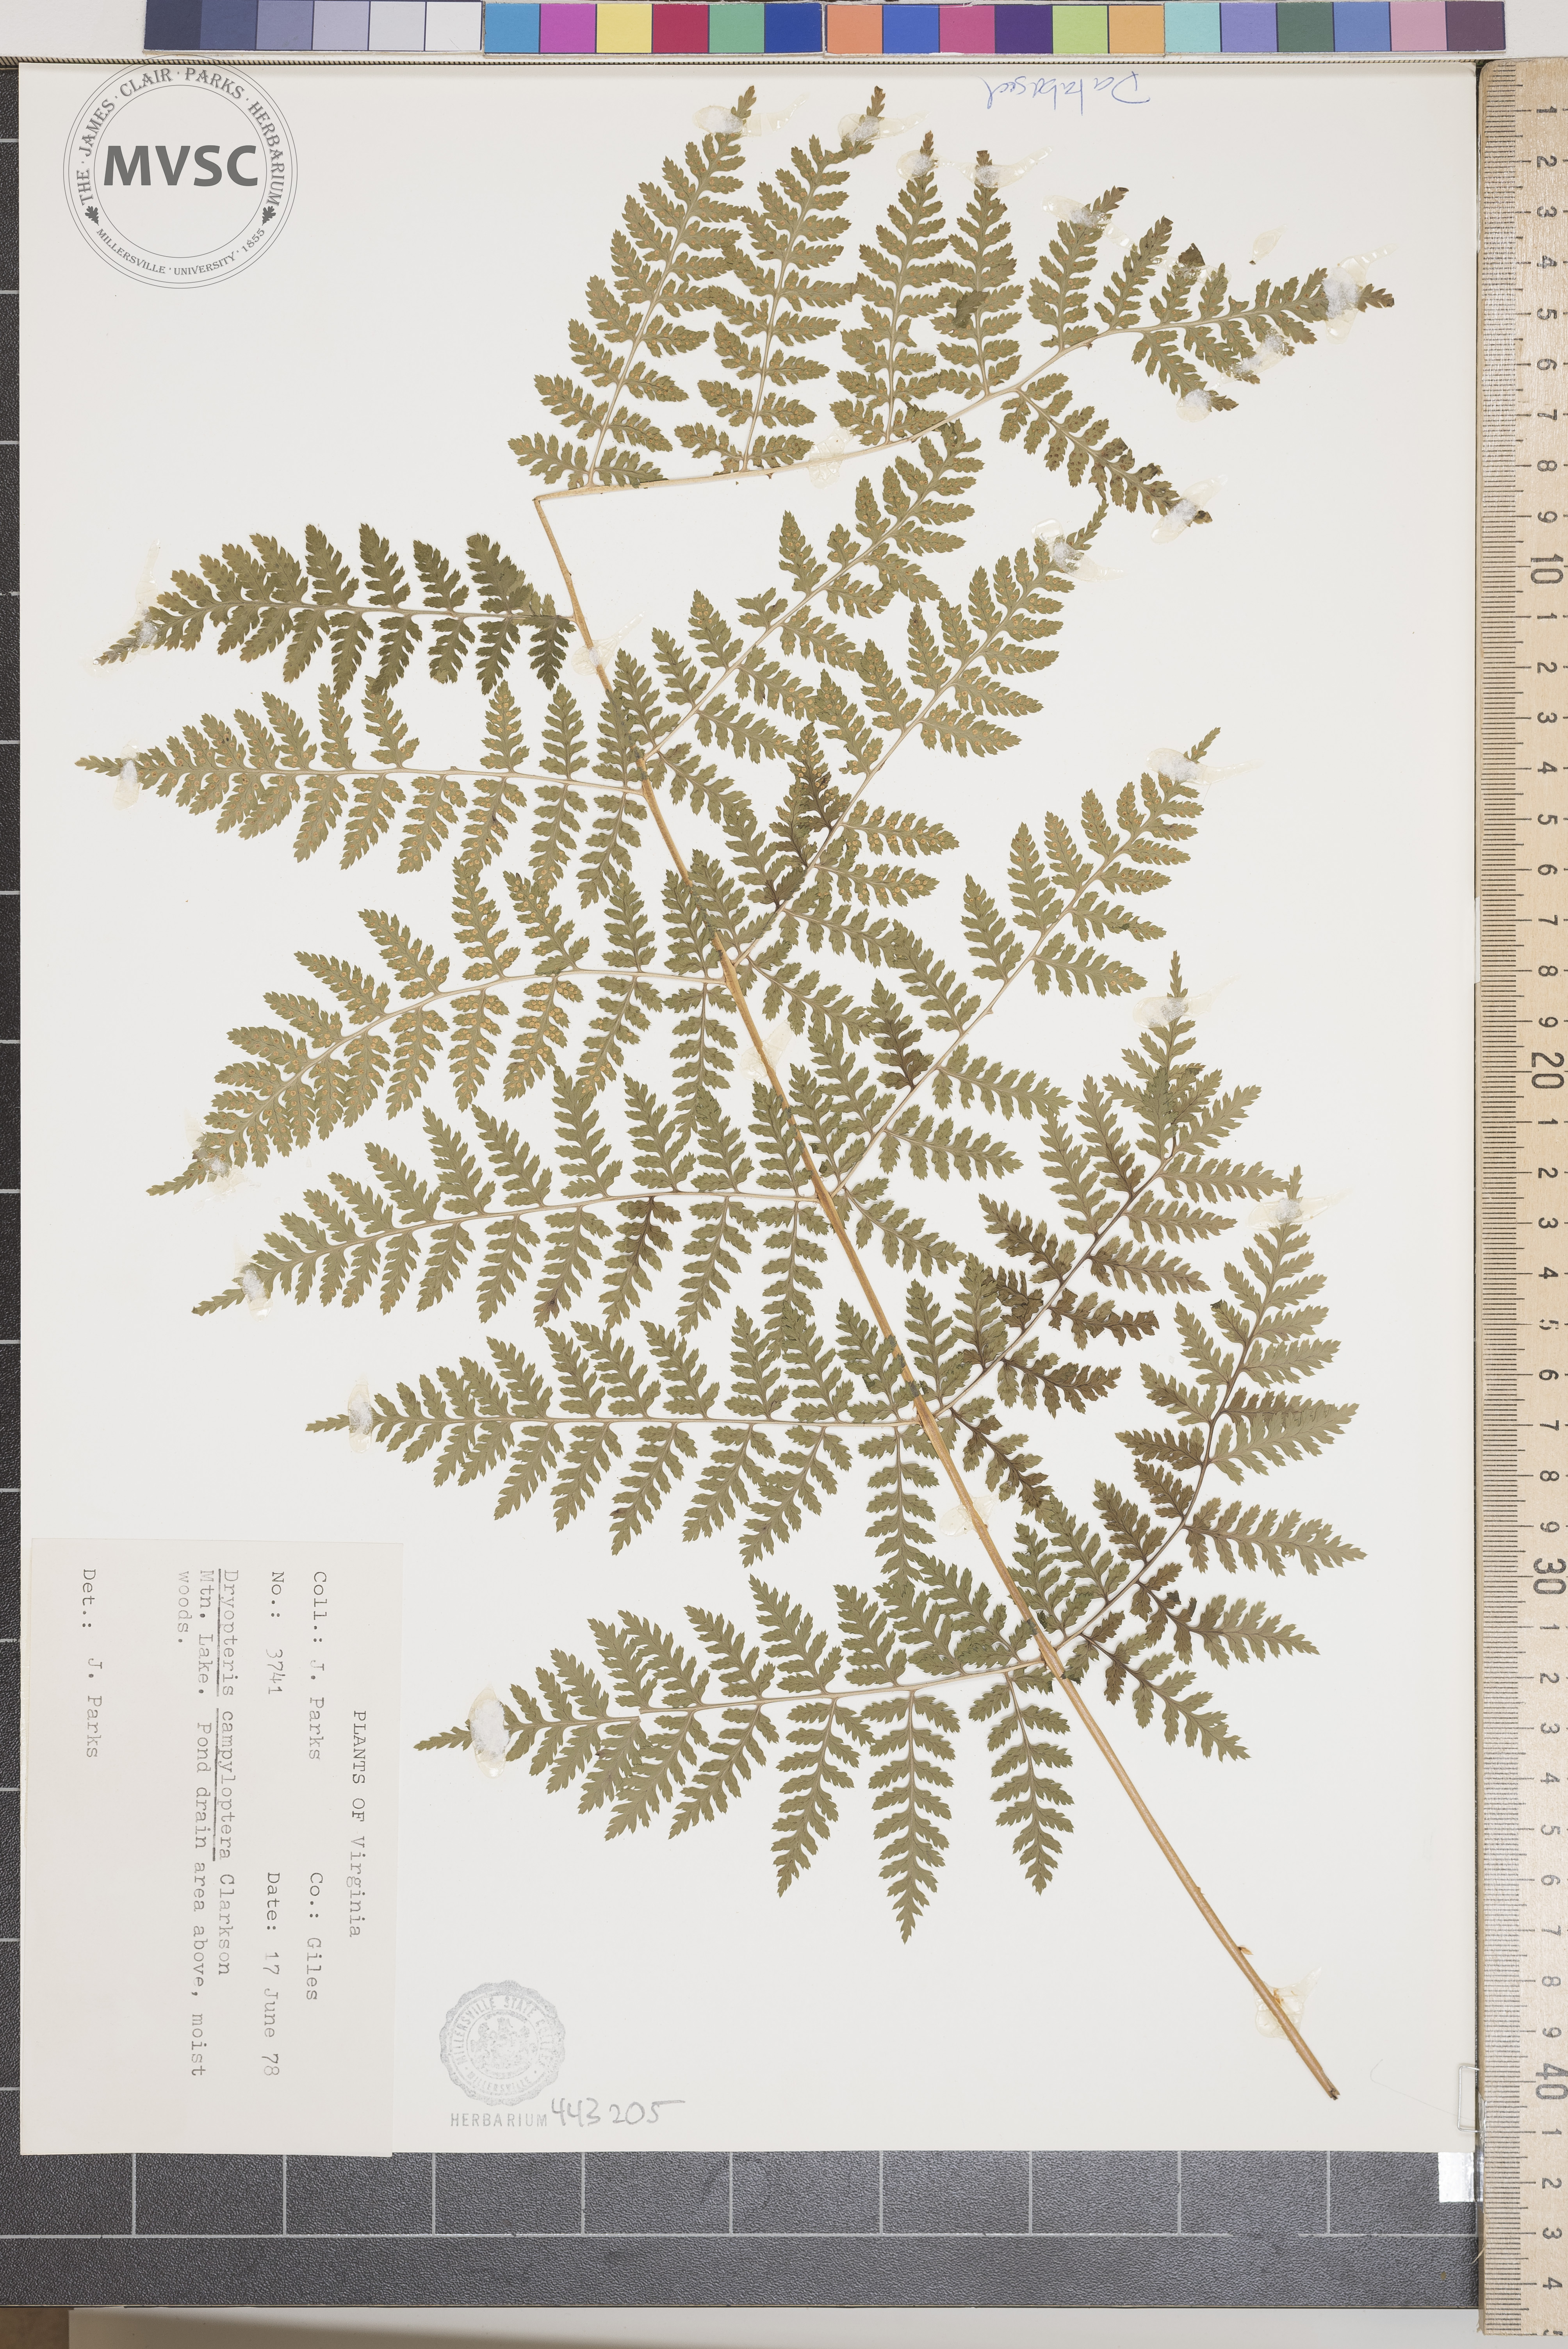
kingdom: Plantae
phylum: Tracheophyta
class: Polypodiopsida
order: Polypodiales
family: Dryopteridaceae
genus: Dryopteris
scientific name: Dryopteris campyloptera
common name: Mountain wood fern
